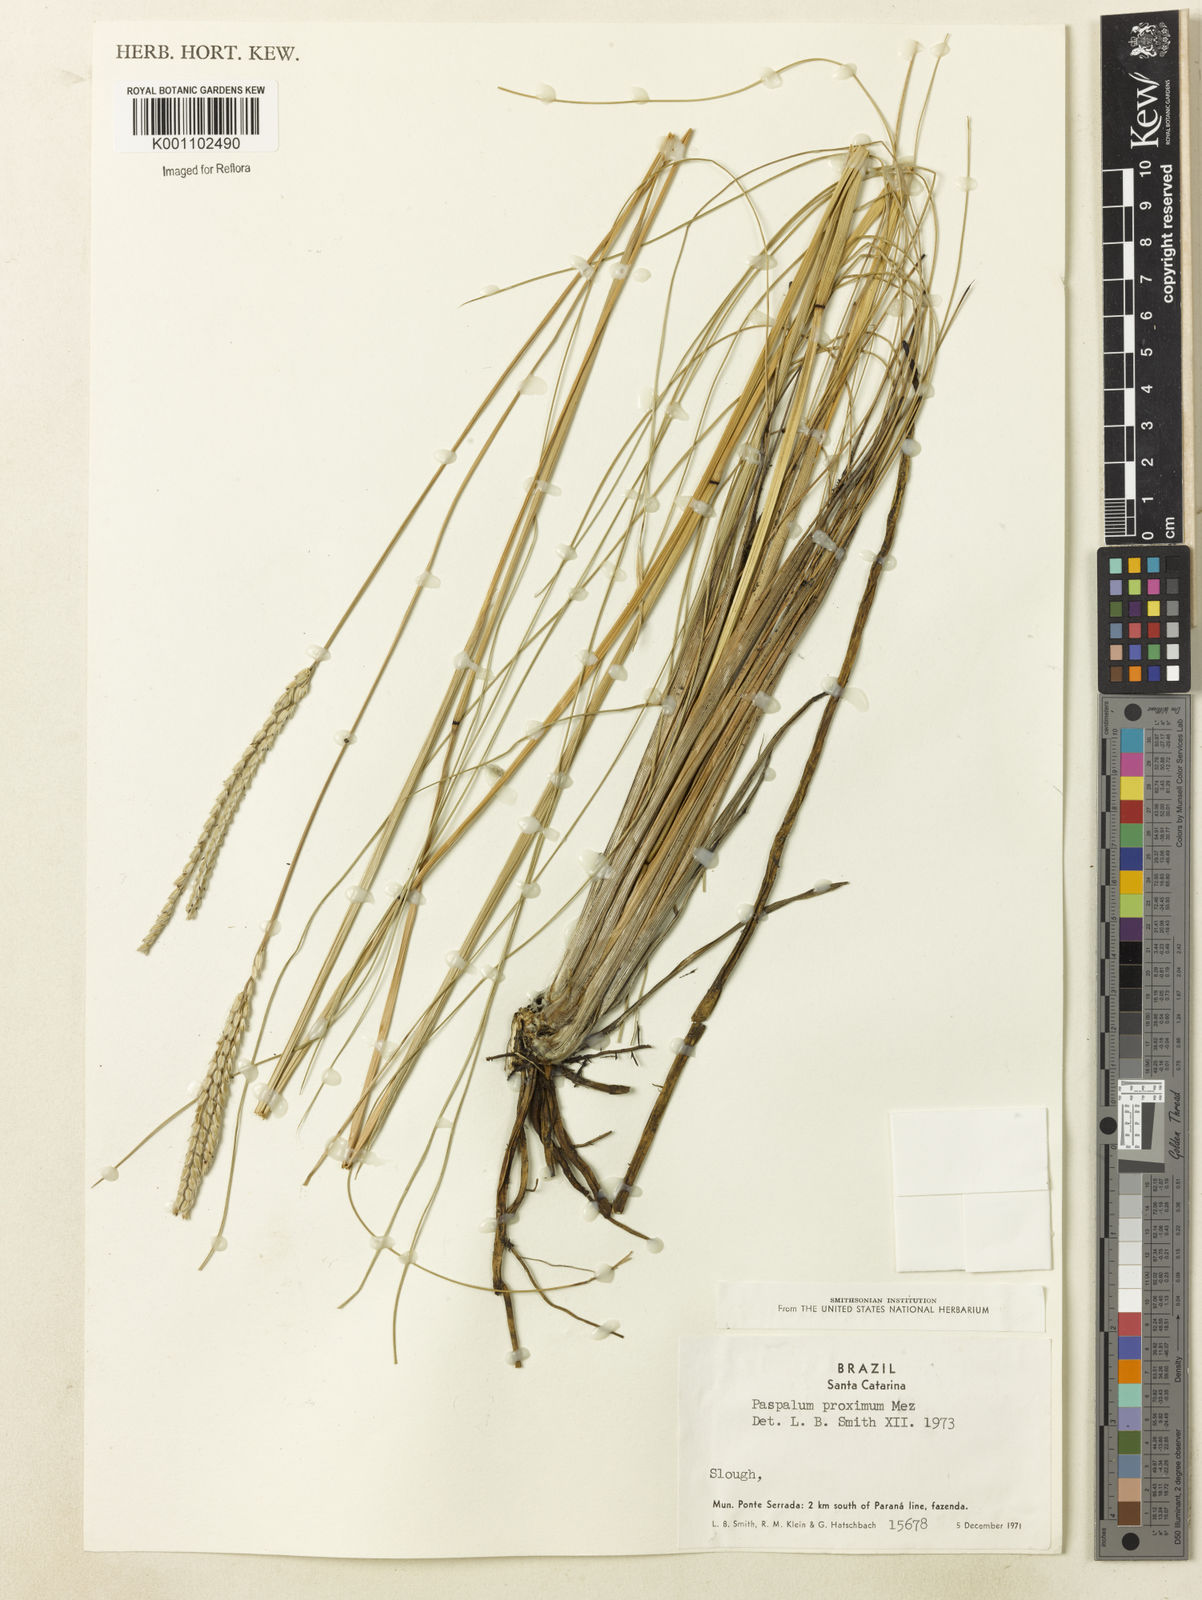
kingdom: Plantae
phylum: Tracheophyta
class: Liliopsida
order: Poales
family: Poaceae
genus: Paspalum
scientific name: Paspalum ellipticum
